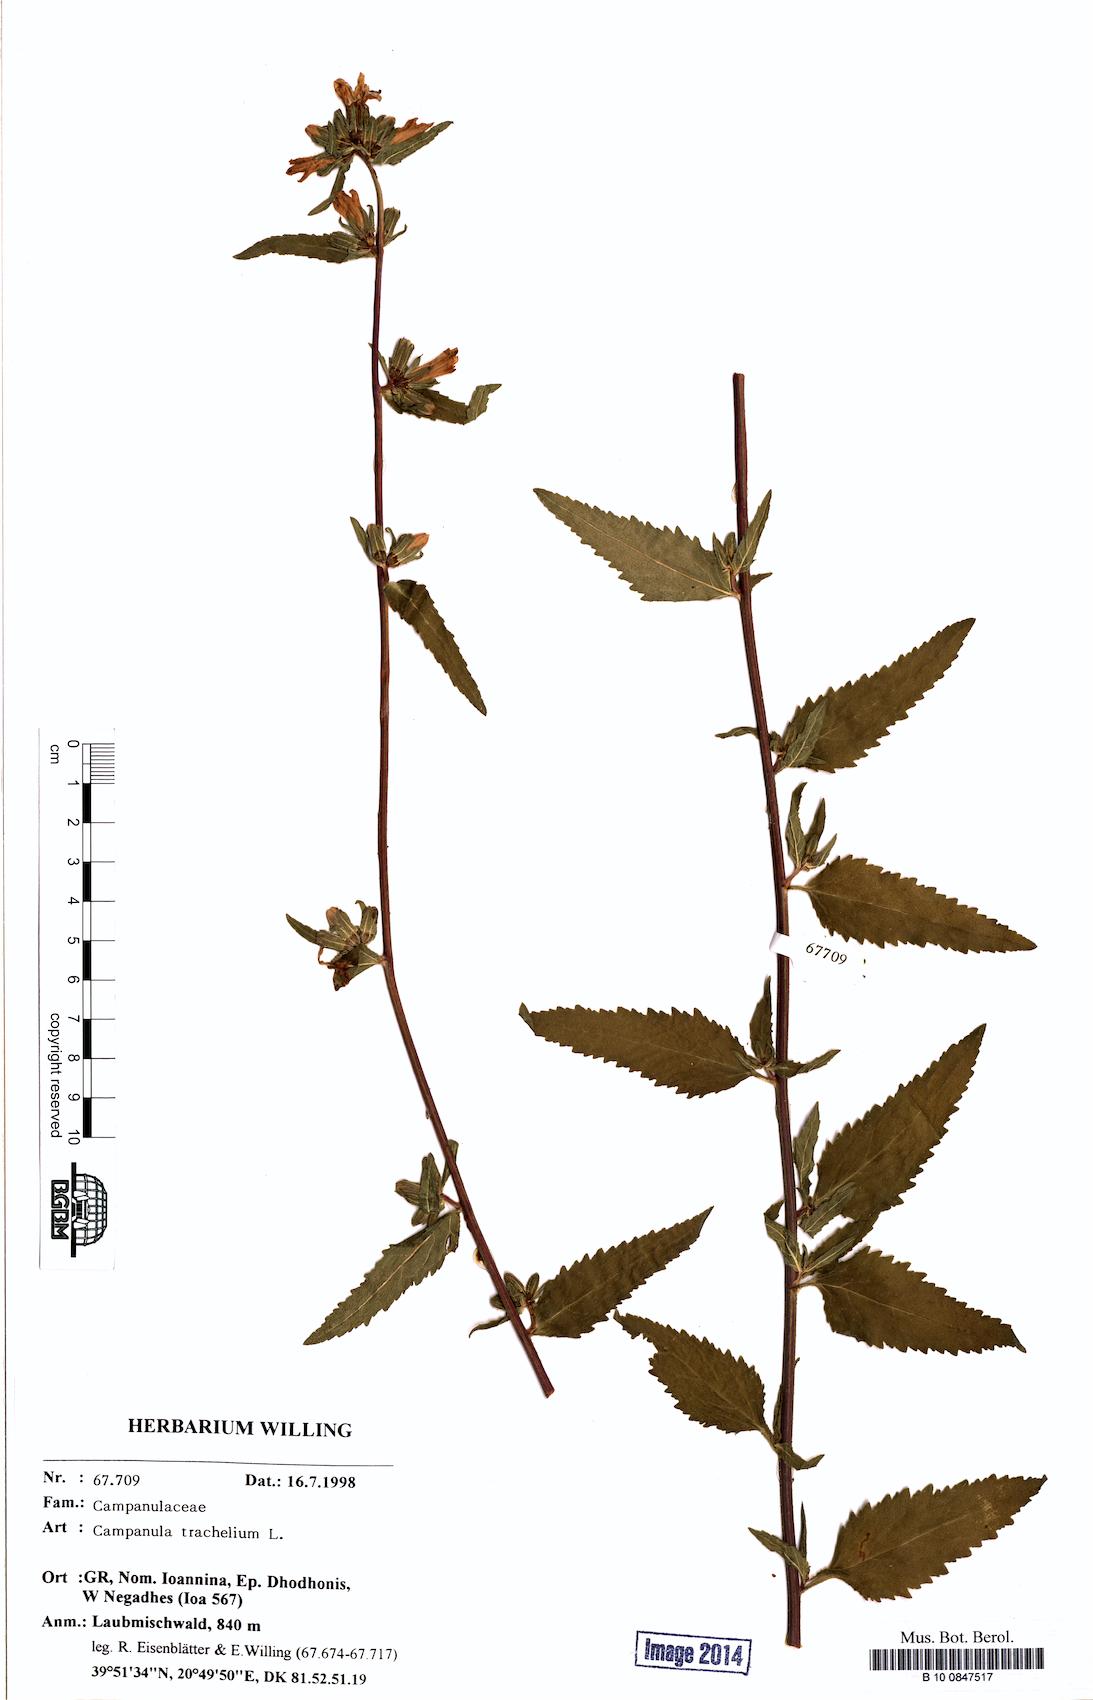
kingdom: Plantae
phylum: Tracheophyta
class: Magnoliopsida
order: Asterales
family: Campanulaceae
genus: Campanula
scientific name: Campanula trachelium
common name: Nettle-leaved bellflower
